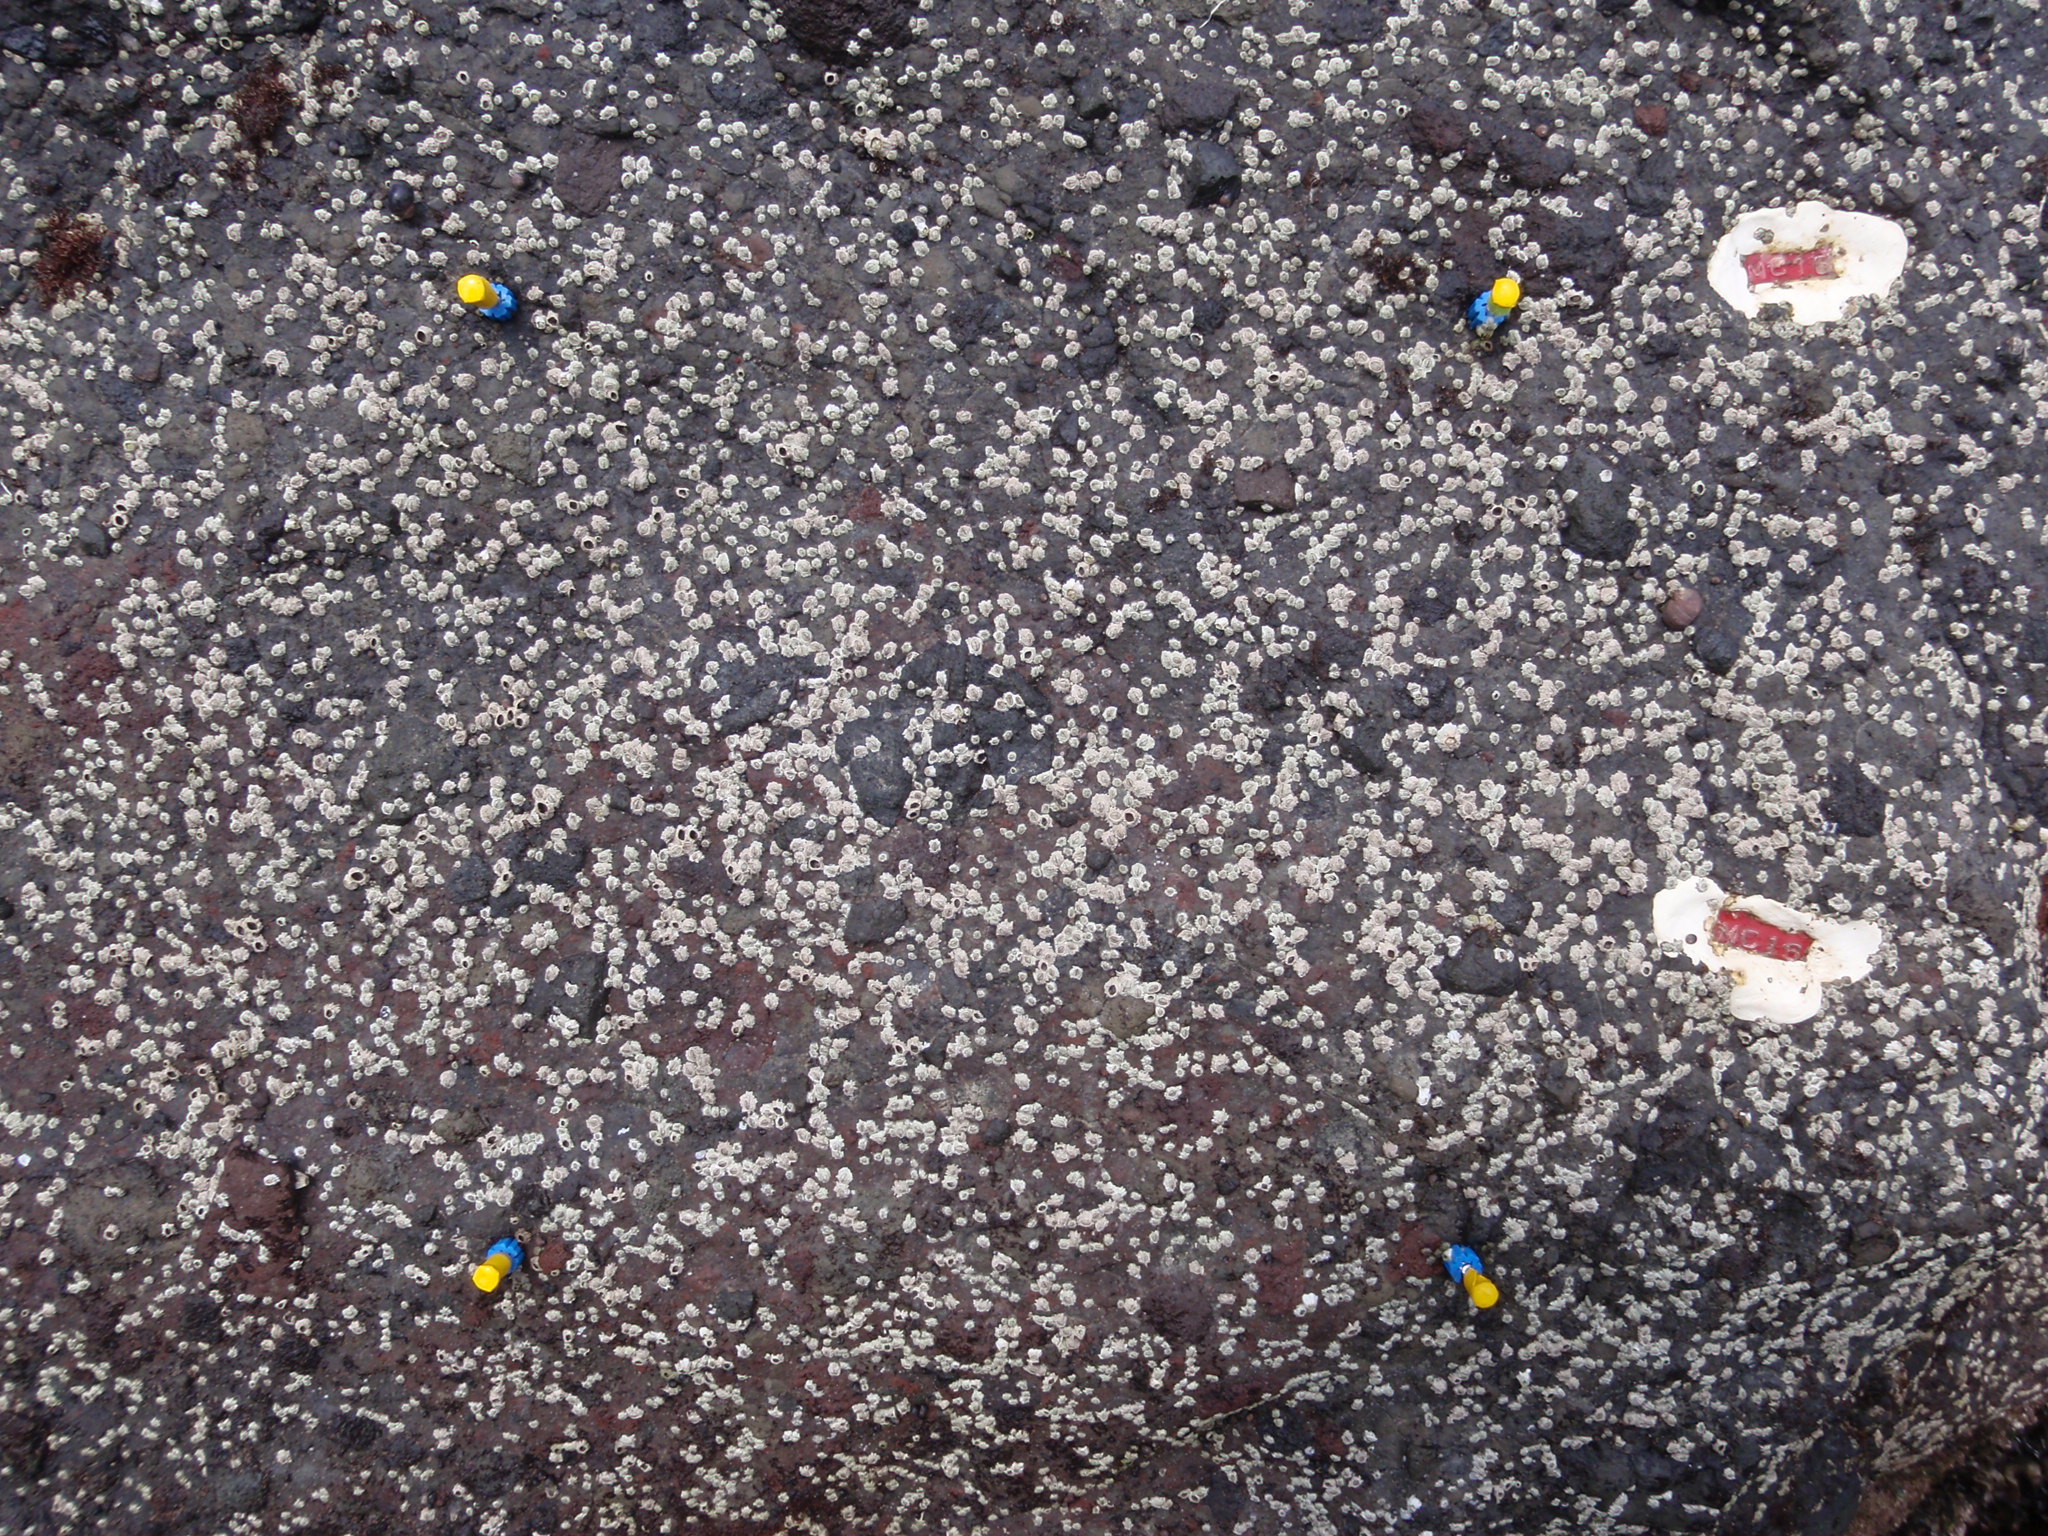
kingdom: Animalia
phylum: Arthropoda
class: Maxillopoda
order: Sessilia
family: Chthamalidae
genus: Chthamalus
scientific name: Chthamalus dalli
